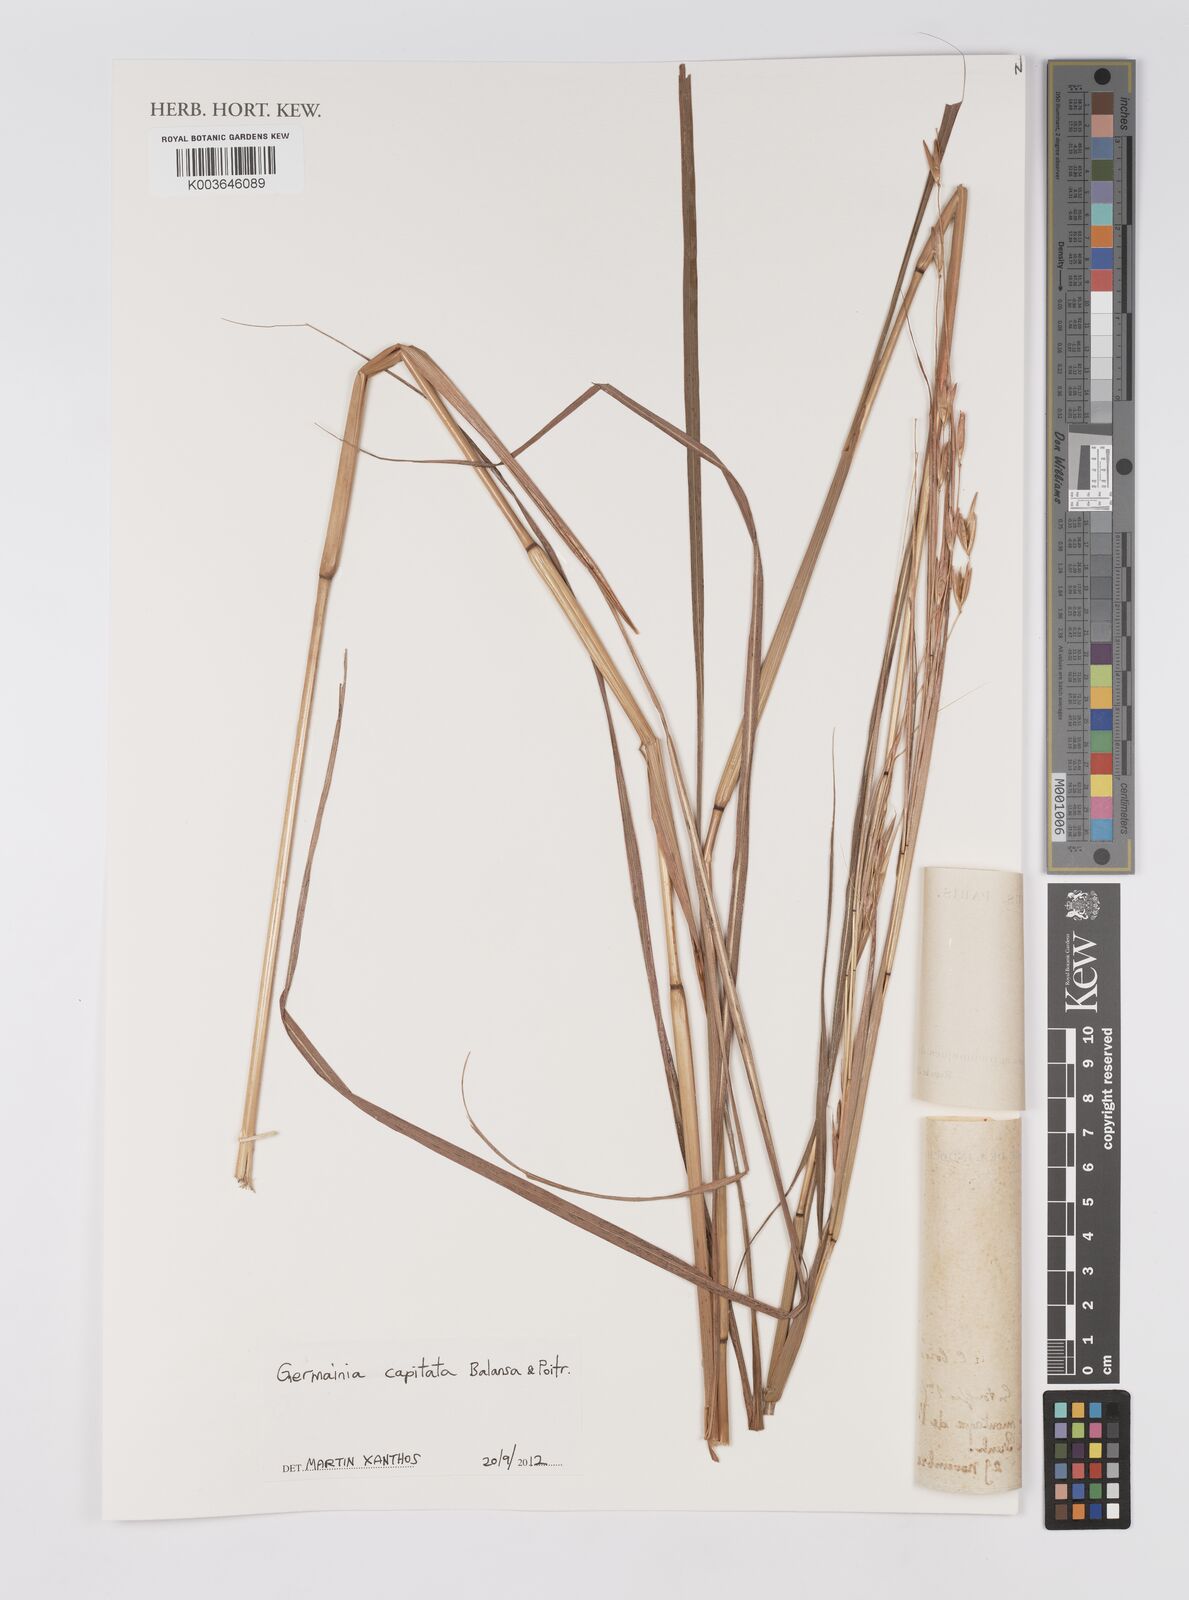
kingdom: Plantae
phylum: Tracheophyta
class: Liliopsida
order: Poales
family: Poaceae
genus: Germainia
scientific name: Germainia capitata
